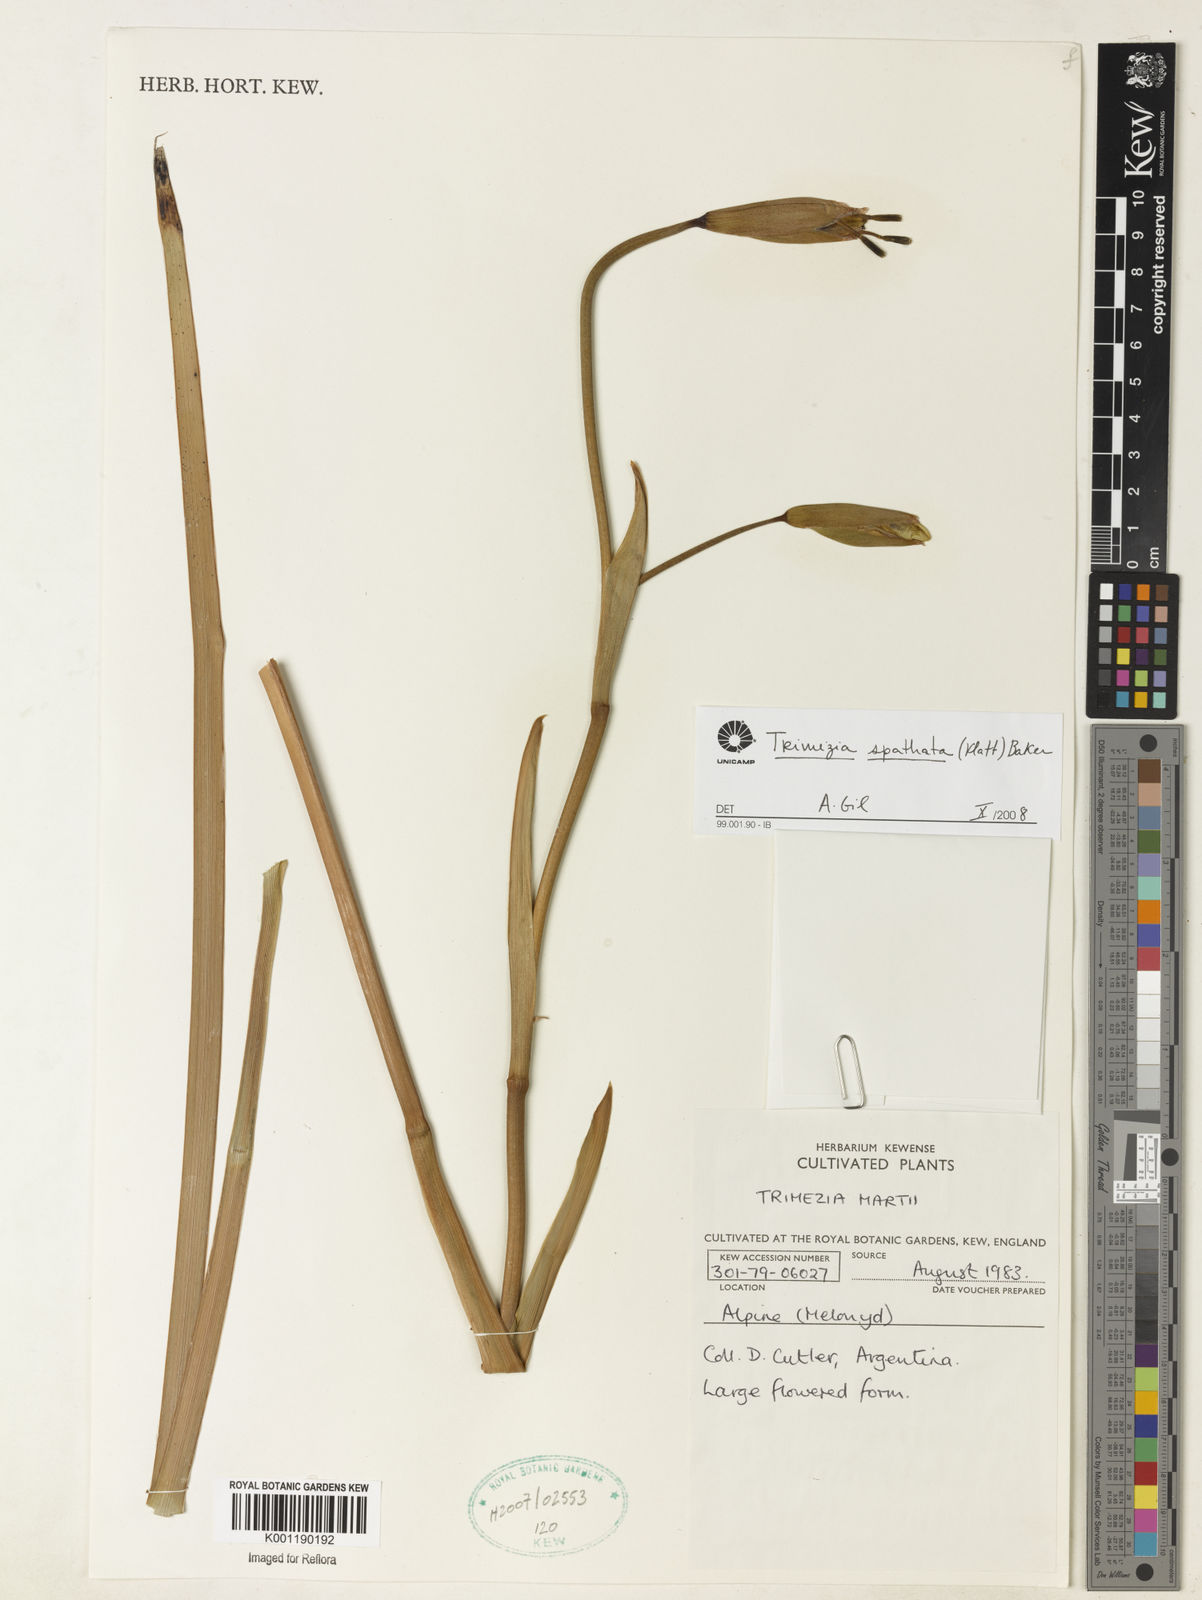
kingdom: Plantae
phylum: Tracheophyta
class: Liliopsida
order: Asparagales
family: Iridaceae
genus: Trimezia
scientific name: Trimezia spathata
